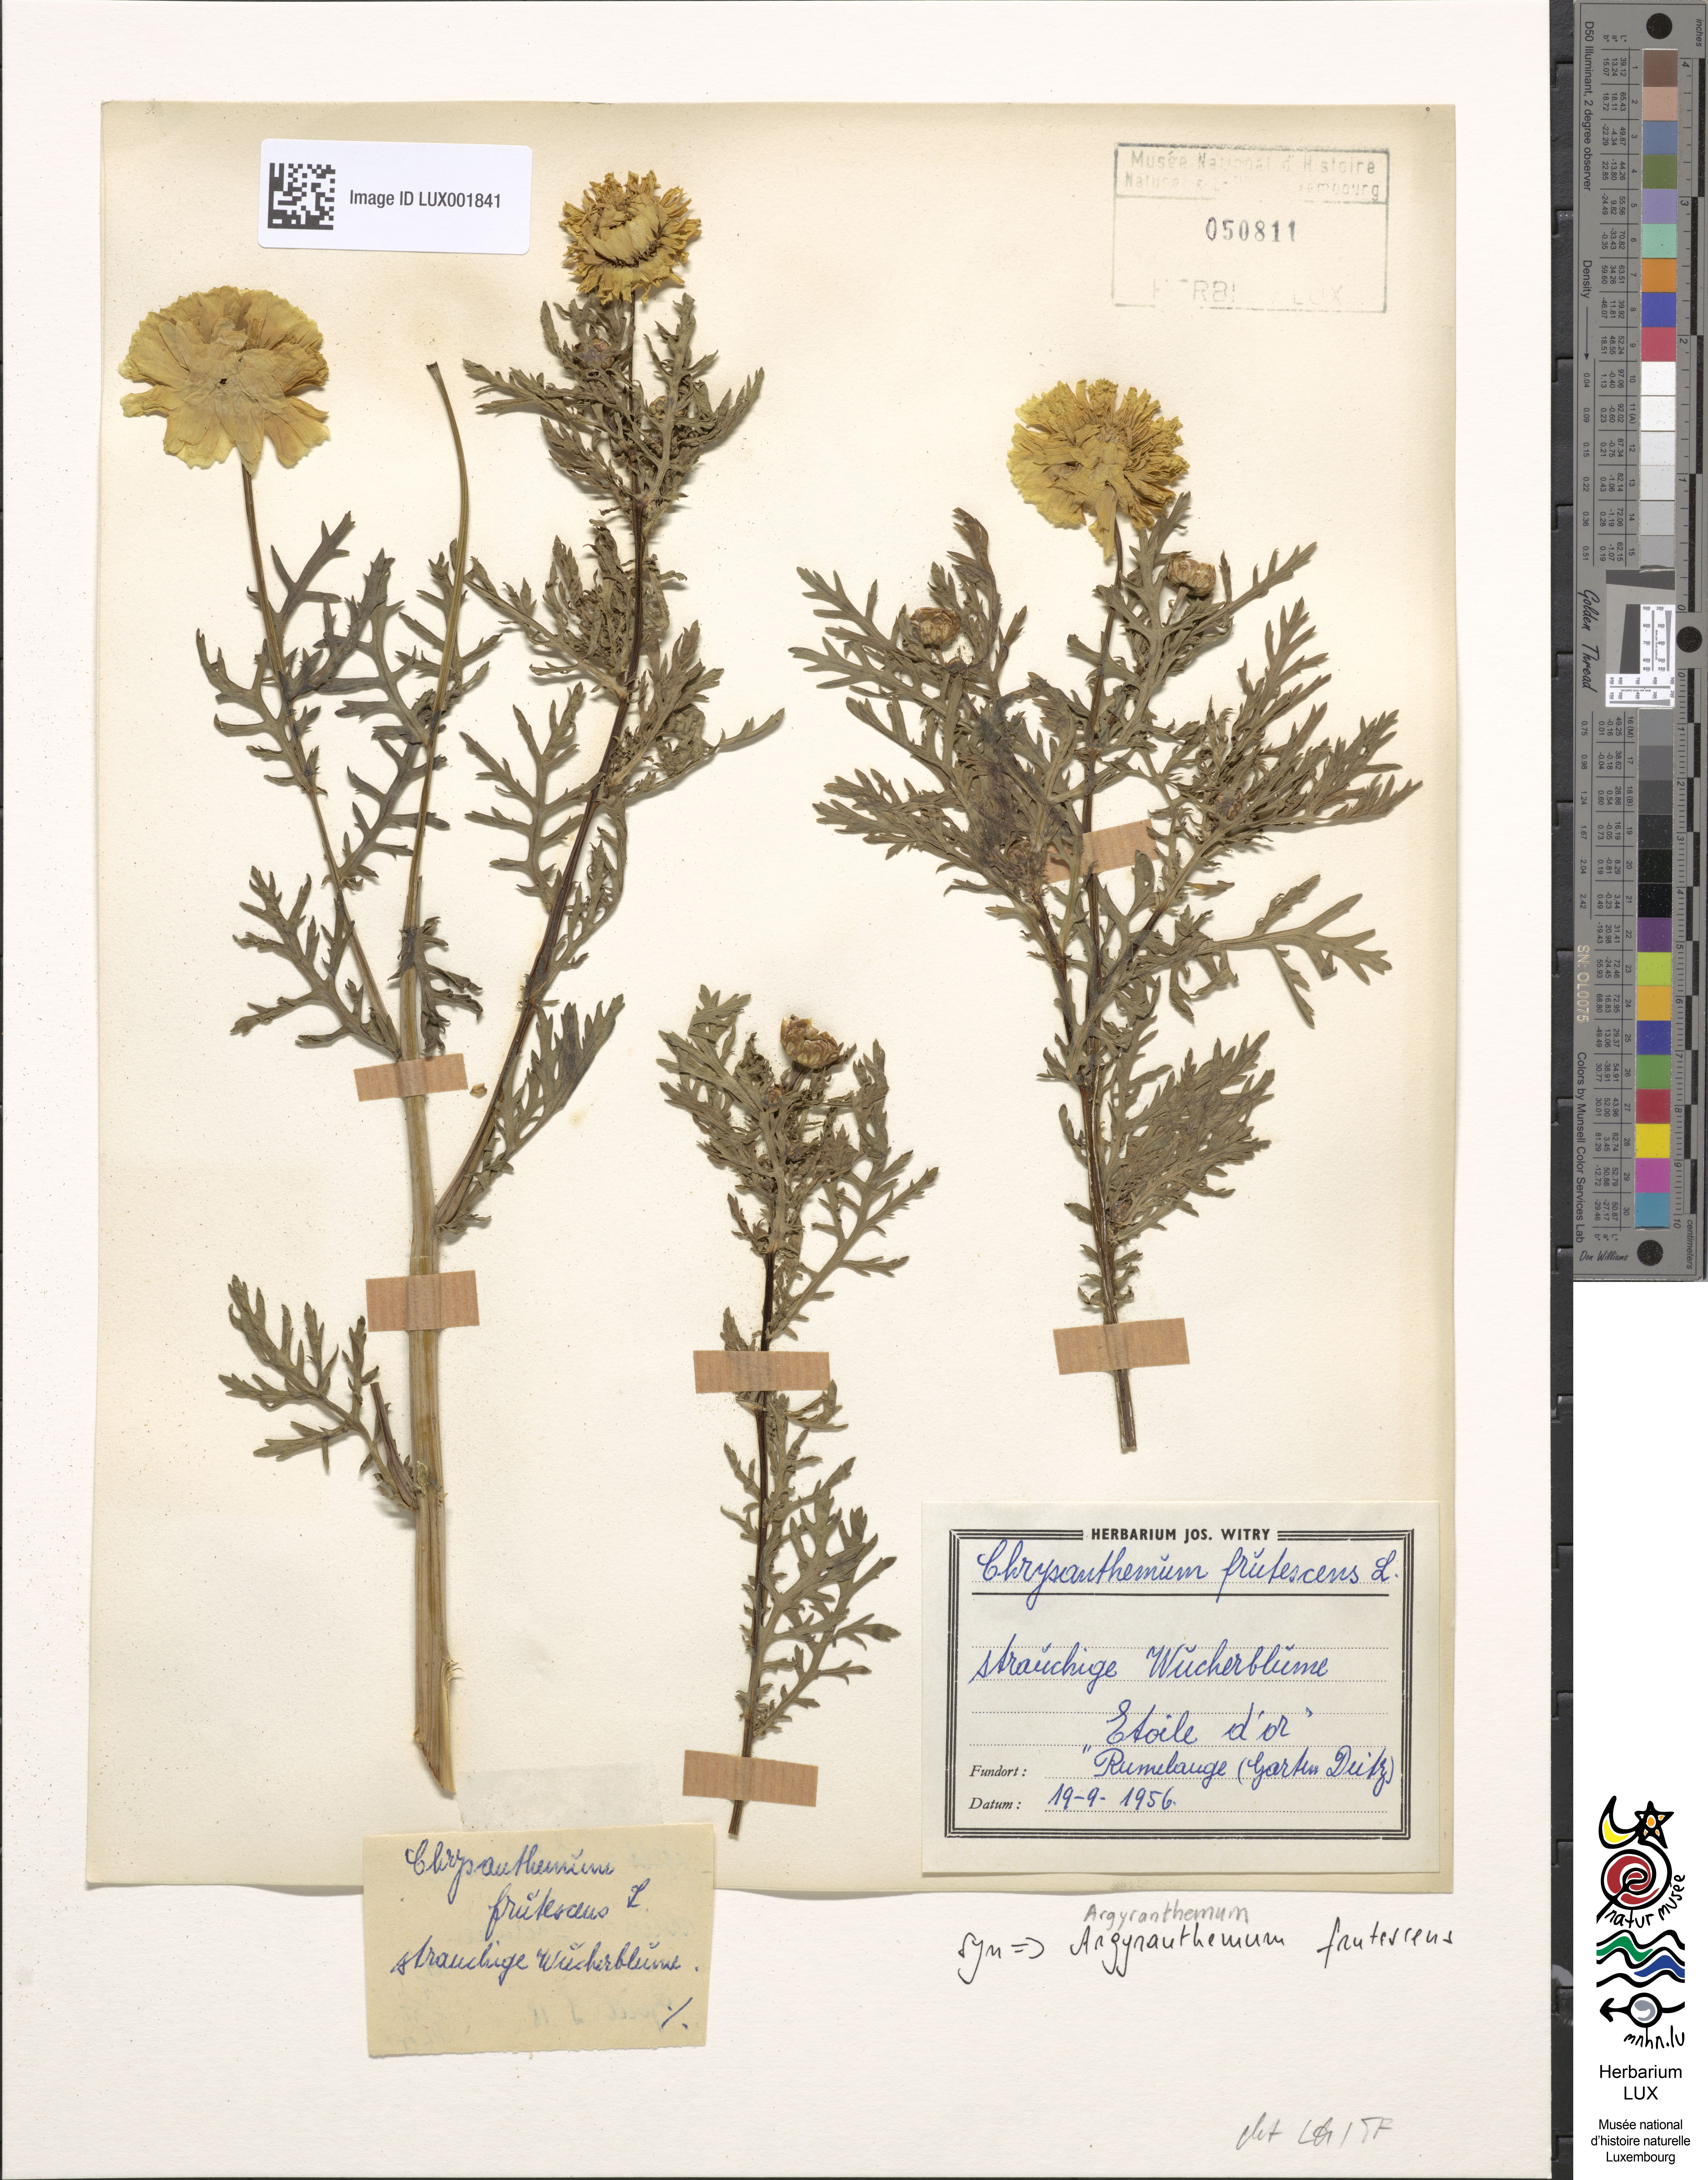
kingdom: Plantae
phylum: Tracheophyta
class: Magnoliopsida
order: Asterales
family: Asteraceae
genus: Argyranthemum
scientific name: Argyranthemum frutescens
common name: Paris daisy
